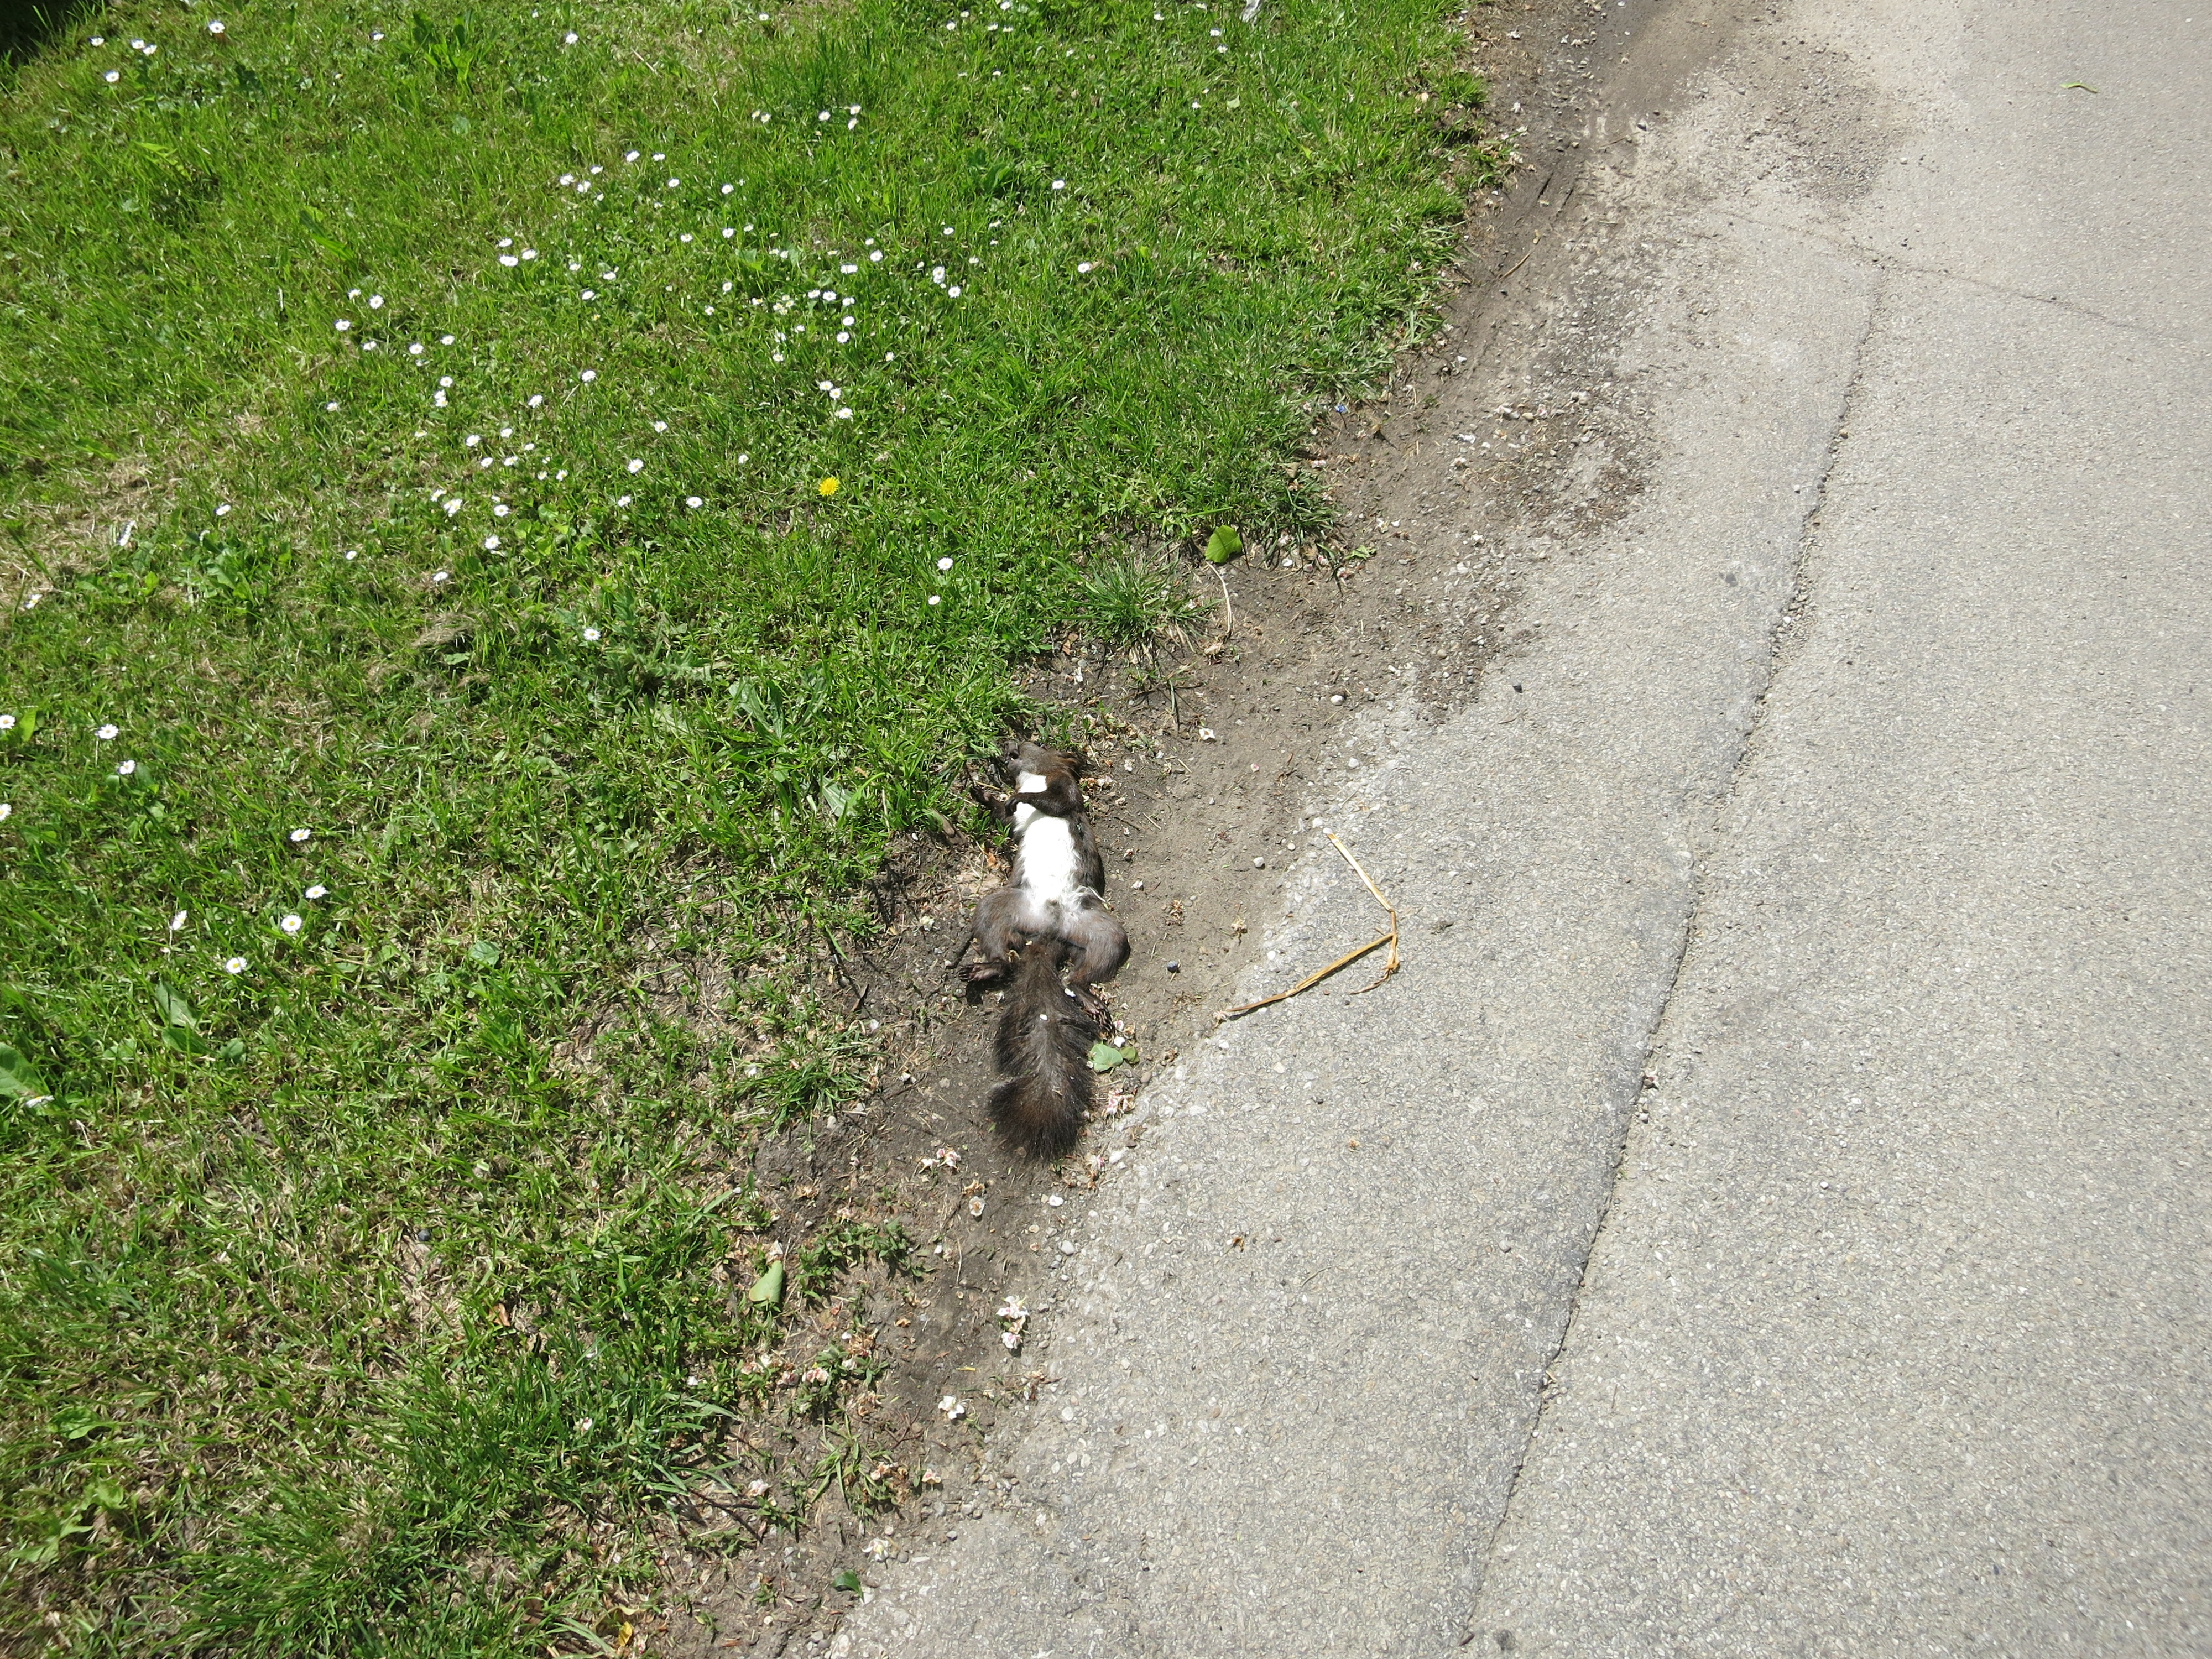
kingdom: Animalia
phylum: Chordata
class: Mammalia
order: Rodentia
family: Sciuridae
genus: Sciurus
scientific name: Sciurus vulgaris
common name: Eurasian red squirrel
